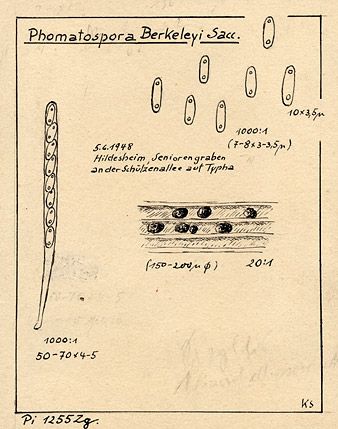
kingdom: Plantae
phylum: Tracheophyta
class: Liliopsida
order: Poales
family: Typhaceae
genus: Typha
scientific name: Typha
